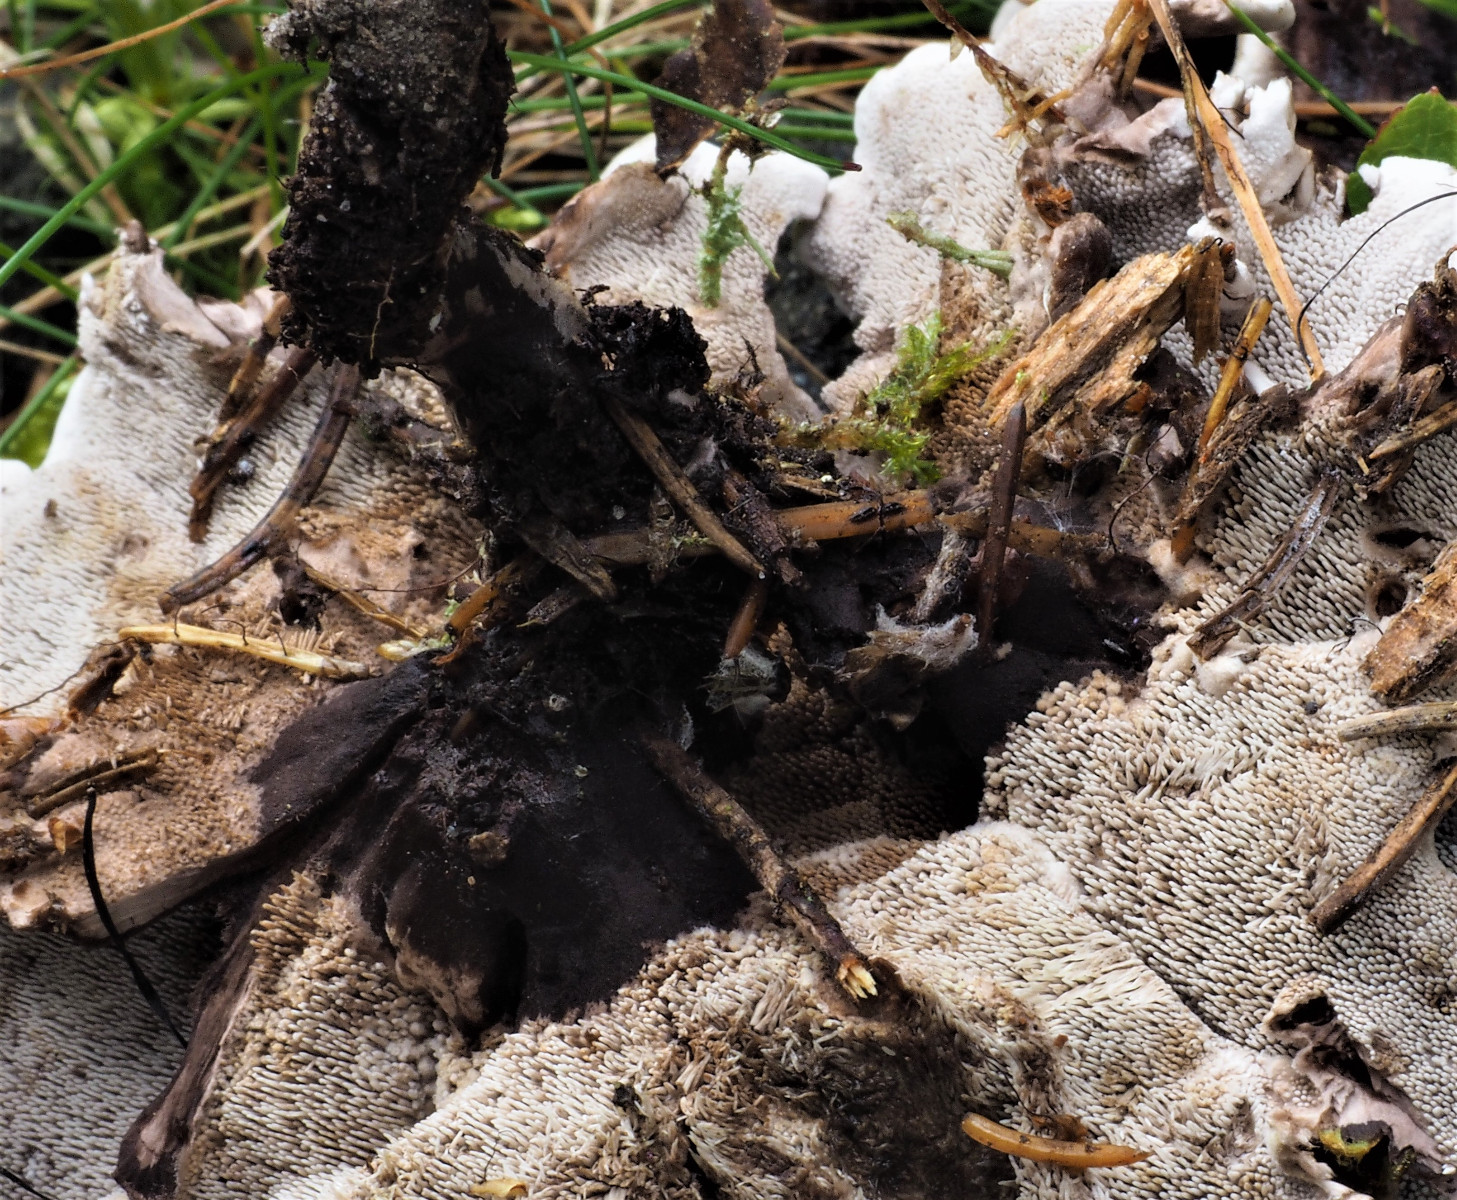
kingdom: Fungi
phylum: Basidiomycota
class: Agaricomycetes
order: Thelephorales
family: Thelephoraceae
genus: Phellodon
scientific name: Phellodon tomentosus
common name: vellugtende duftpigsvamp
